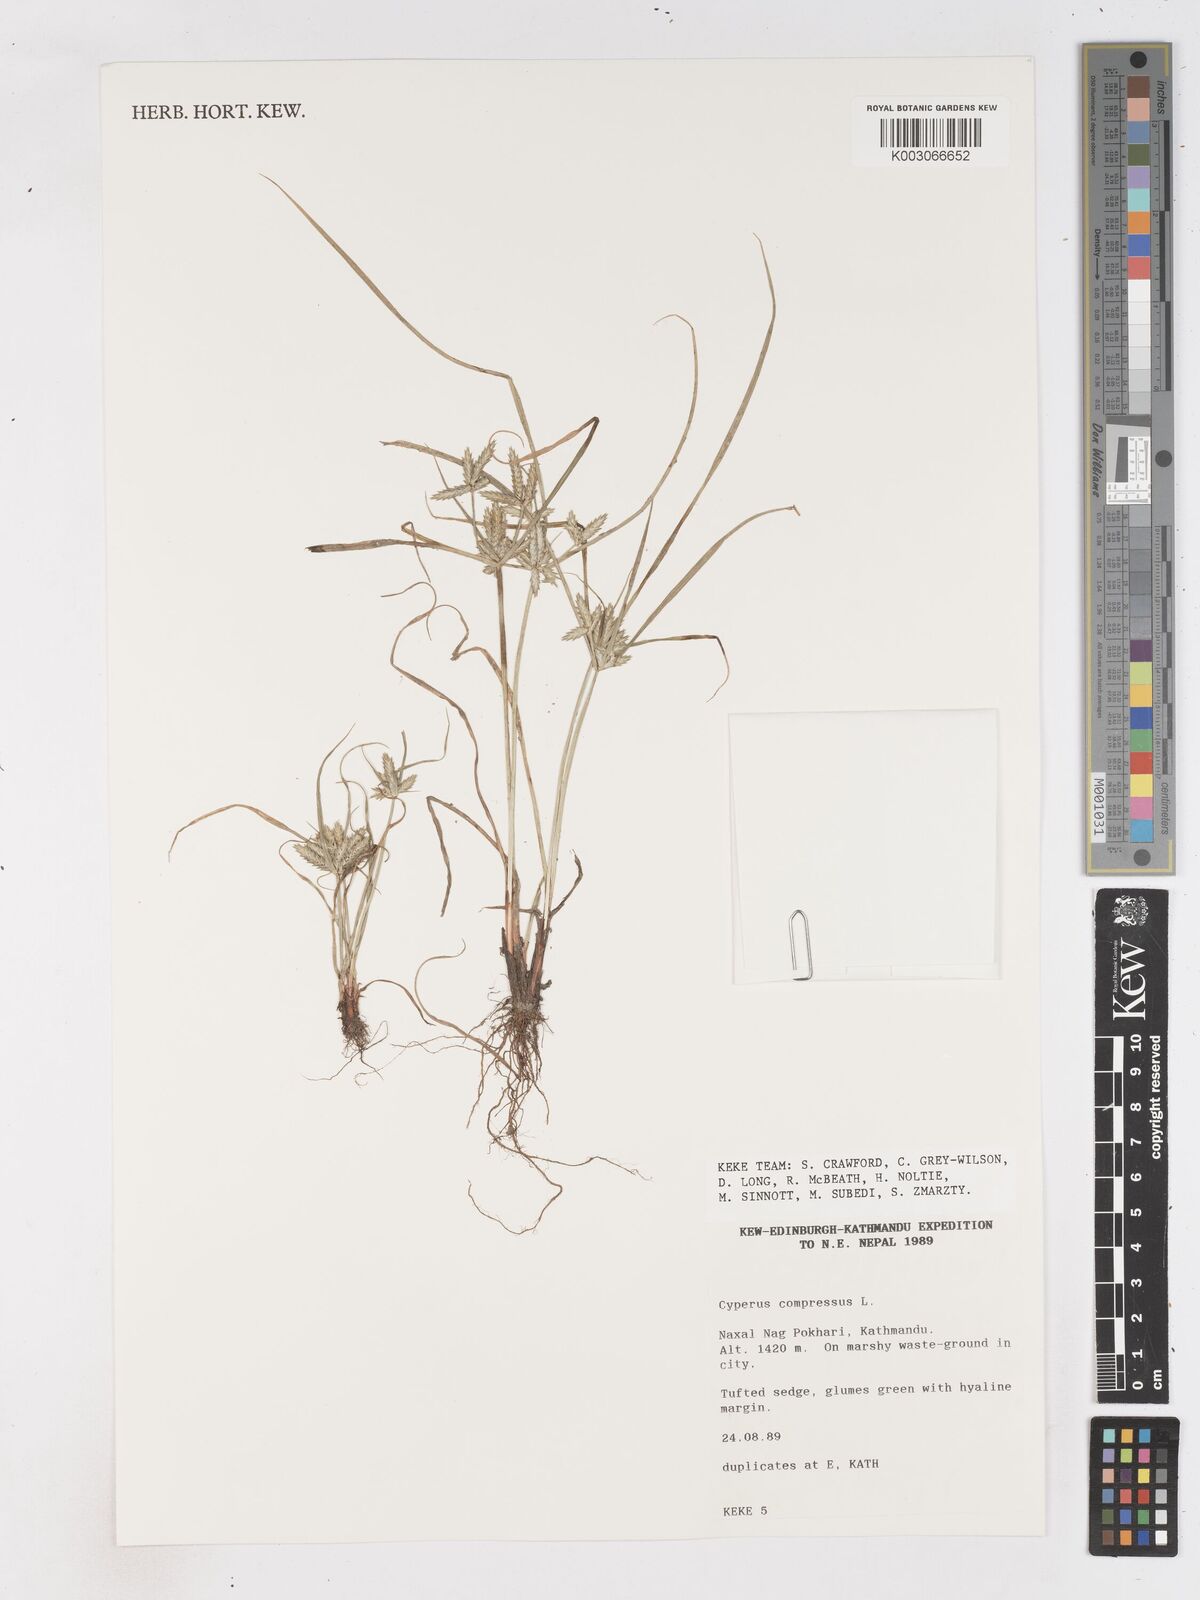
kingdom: Plantae
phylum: Tracheophyta
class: Liliopsida
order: Poales
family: Cyperaceae
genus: Cyperus
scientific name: Cyperus compressus
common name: Poorland flatsedge
